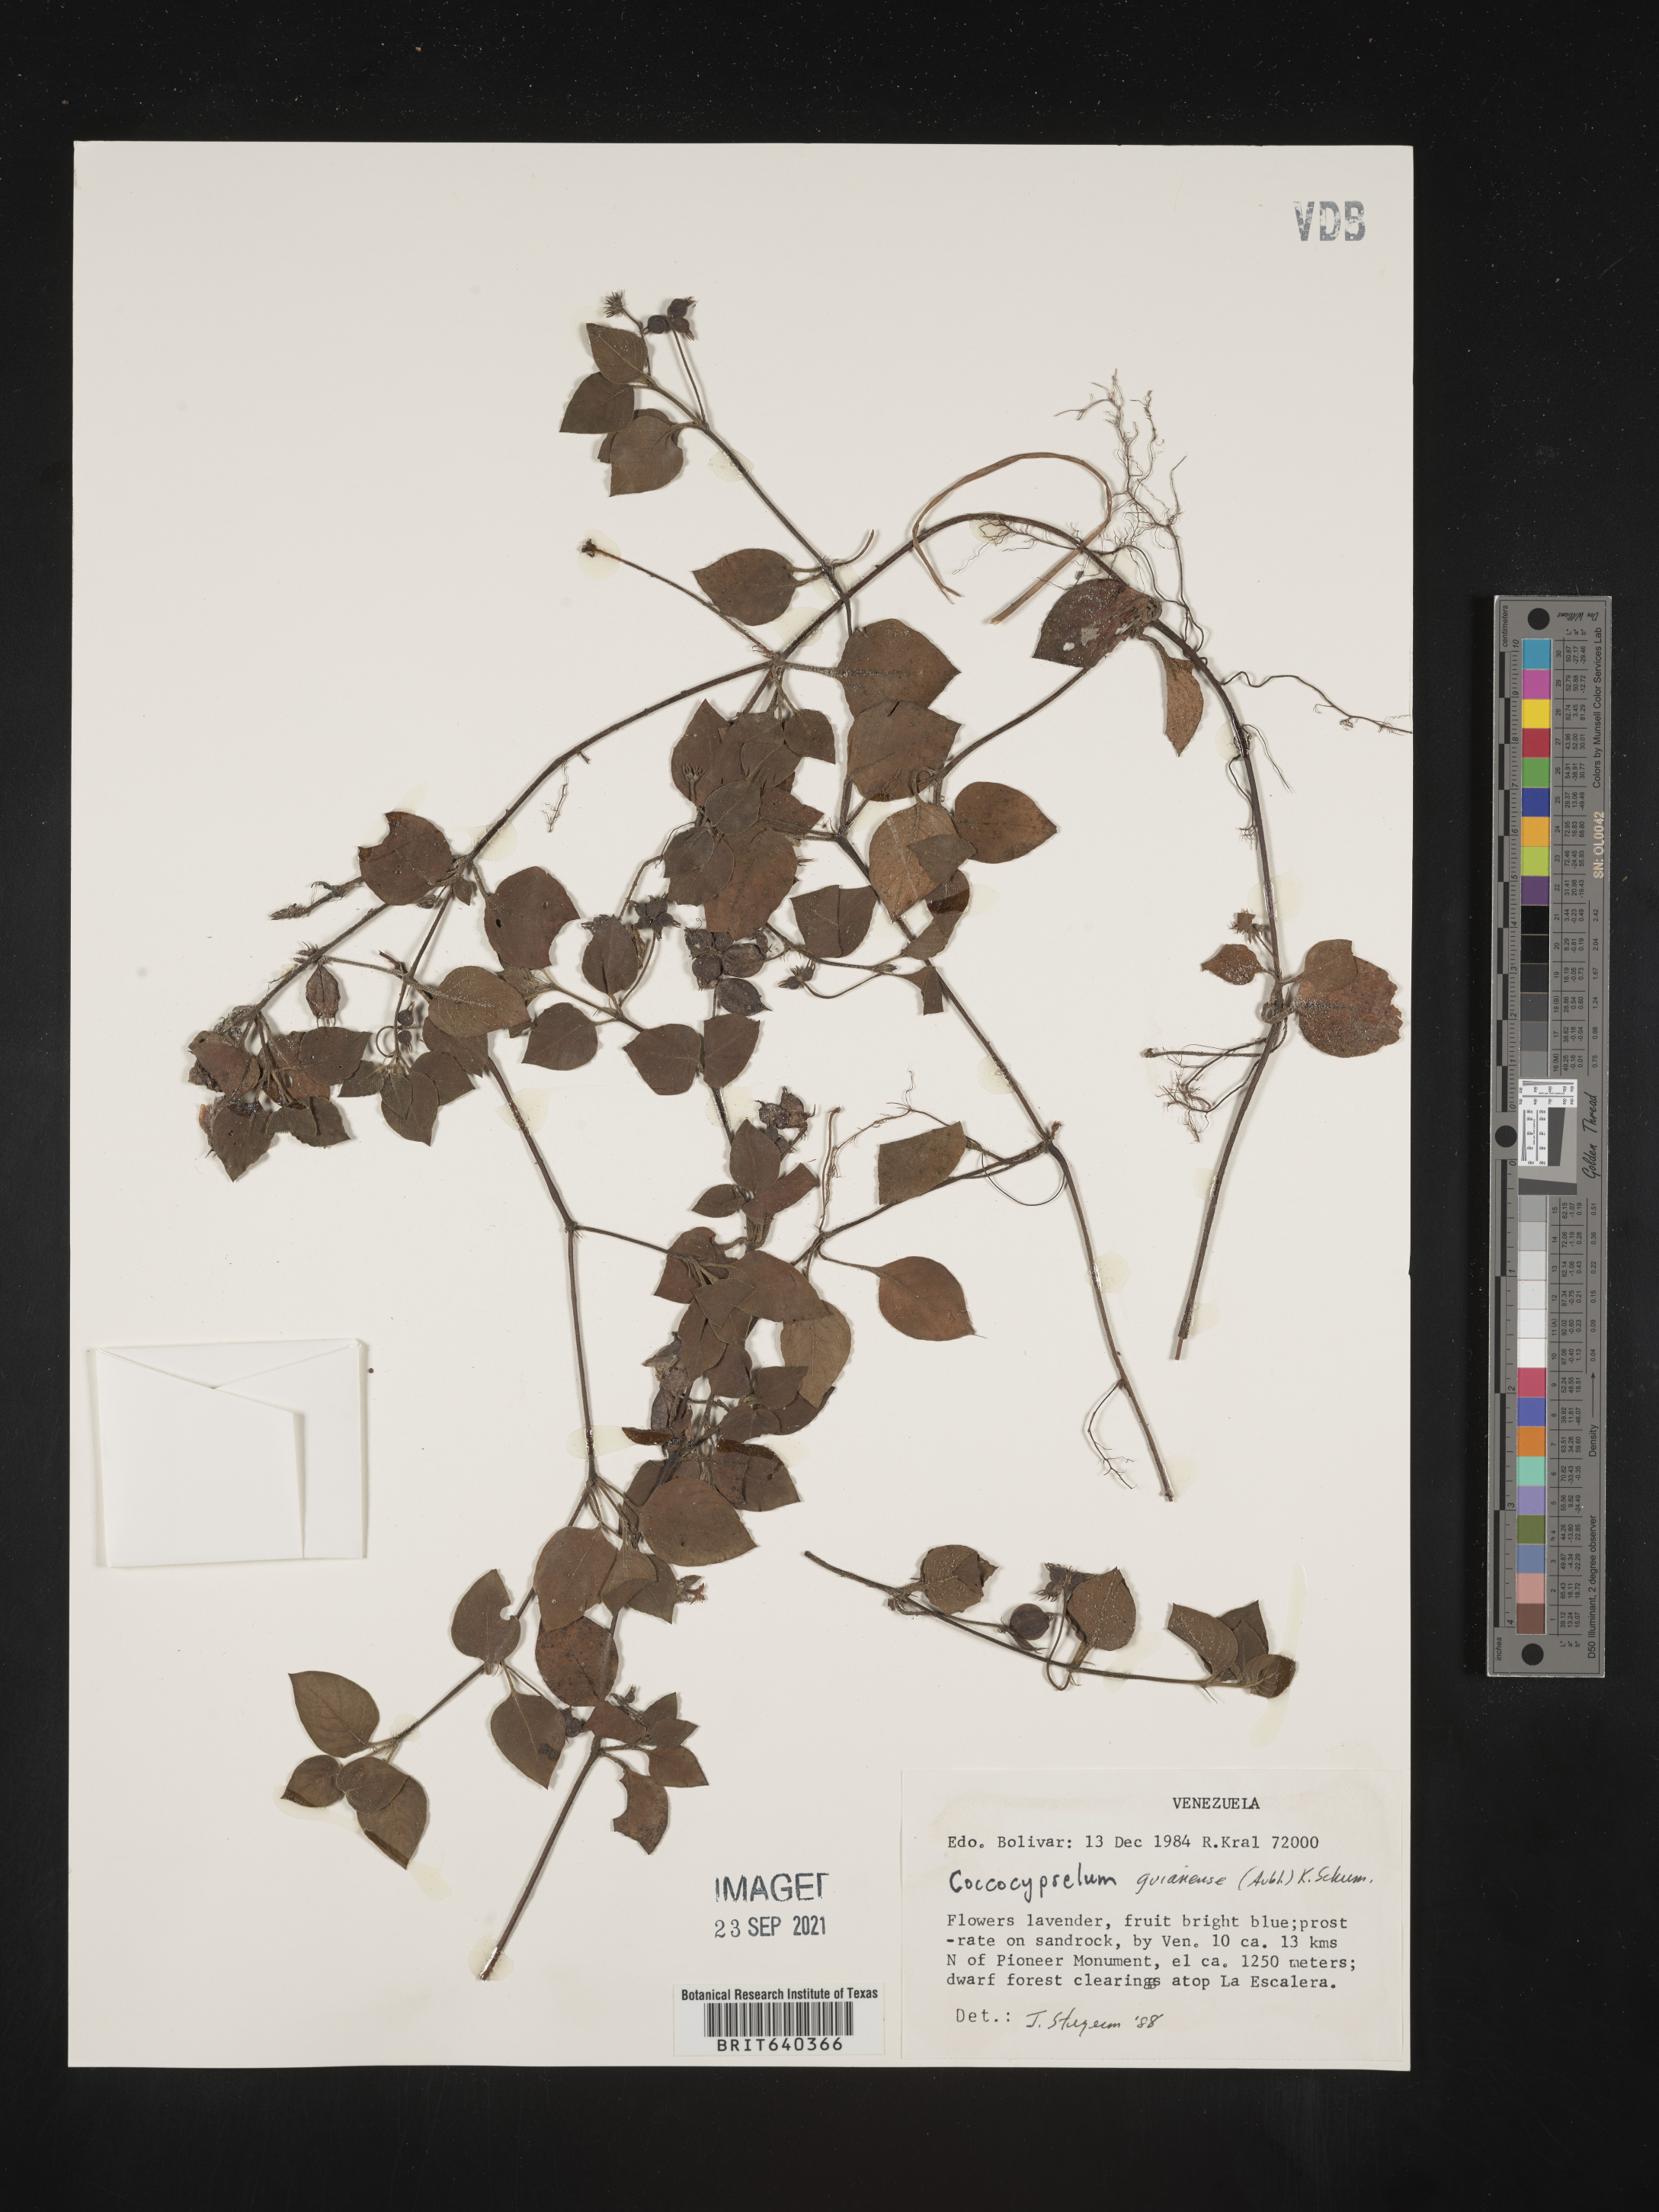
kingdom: Plantae
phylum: Tracheophyta
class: Magnoliopsida
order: Gentianales
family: Rubiaceae
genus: Coccocypselum
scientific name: Coccocypselum
